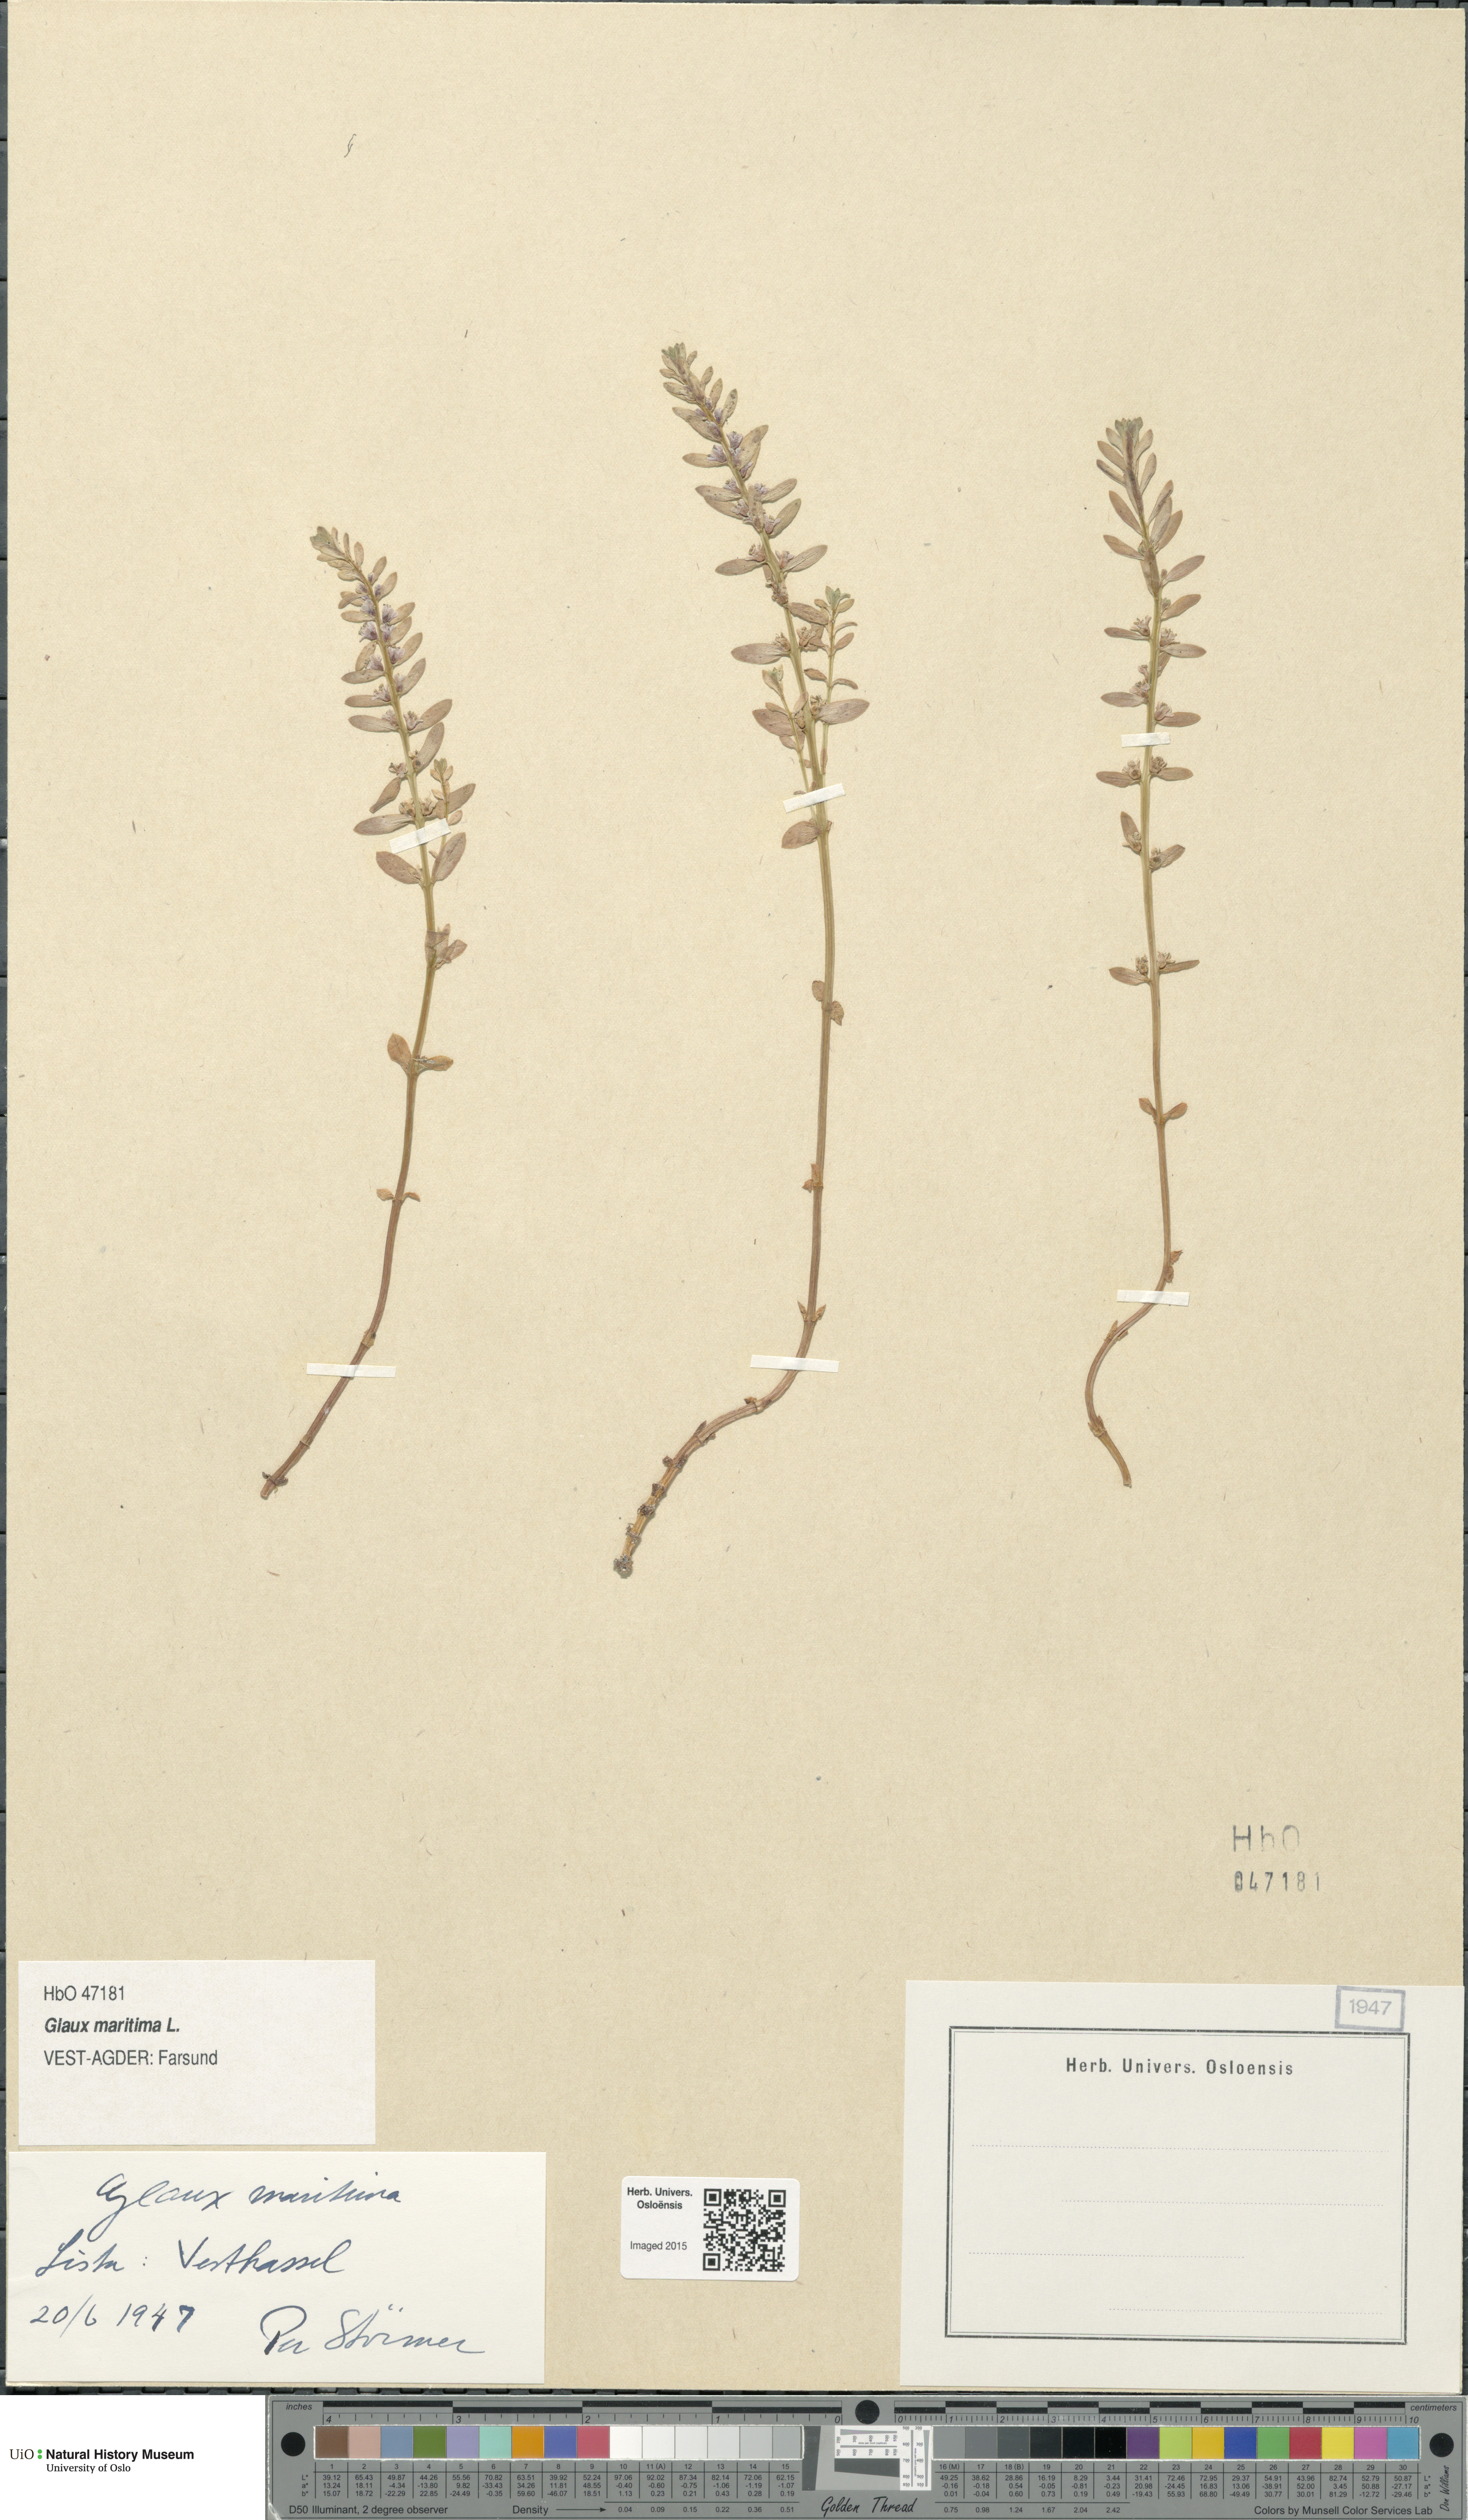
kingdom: Plantae
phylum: Tracheophyta
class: Magnoliopsida
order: Ericales
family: Primulaceae
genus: Lysimachia
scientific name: Lysimachia maritima
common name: Sea milkwort
